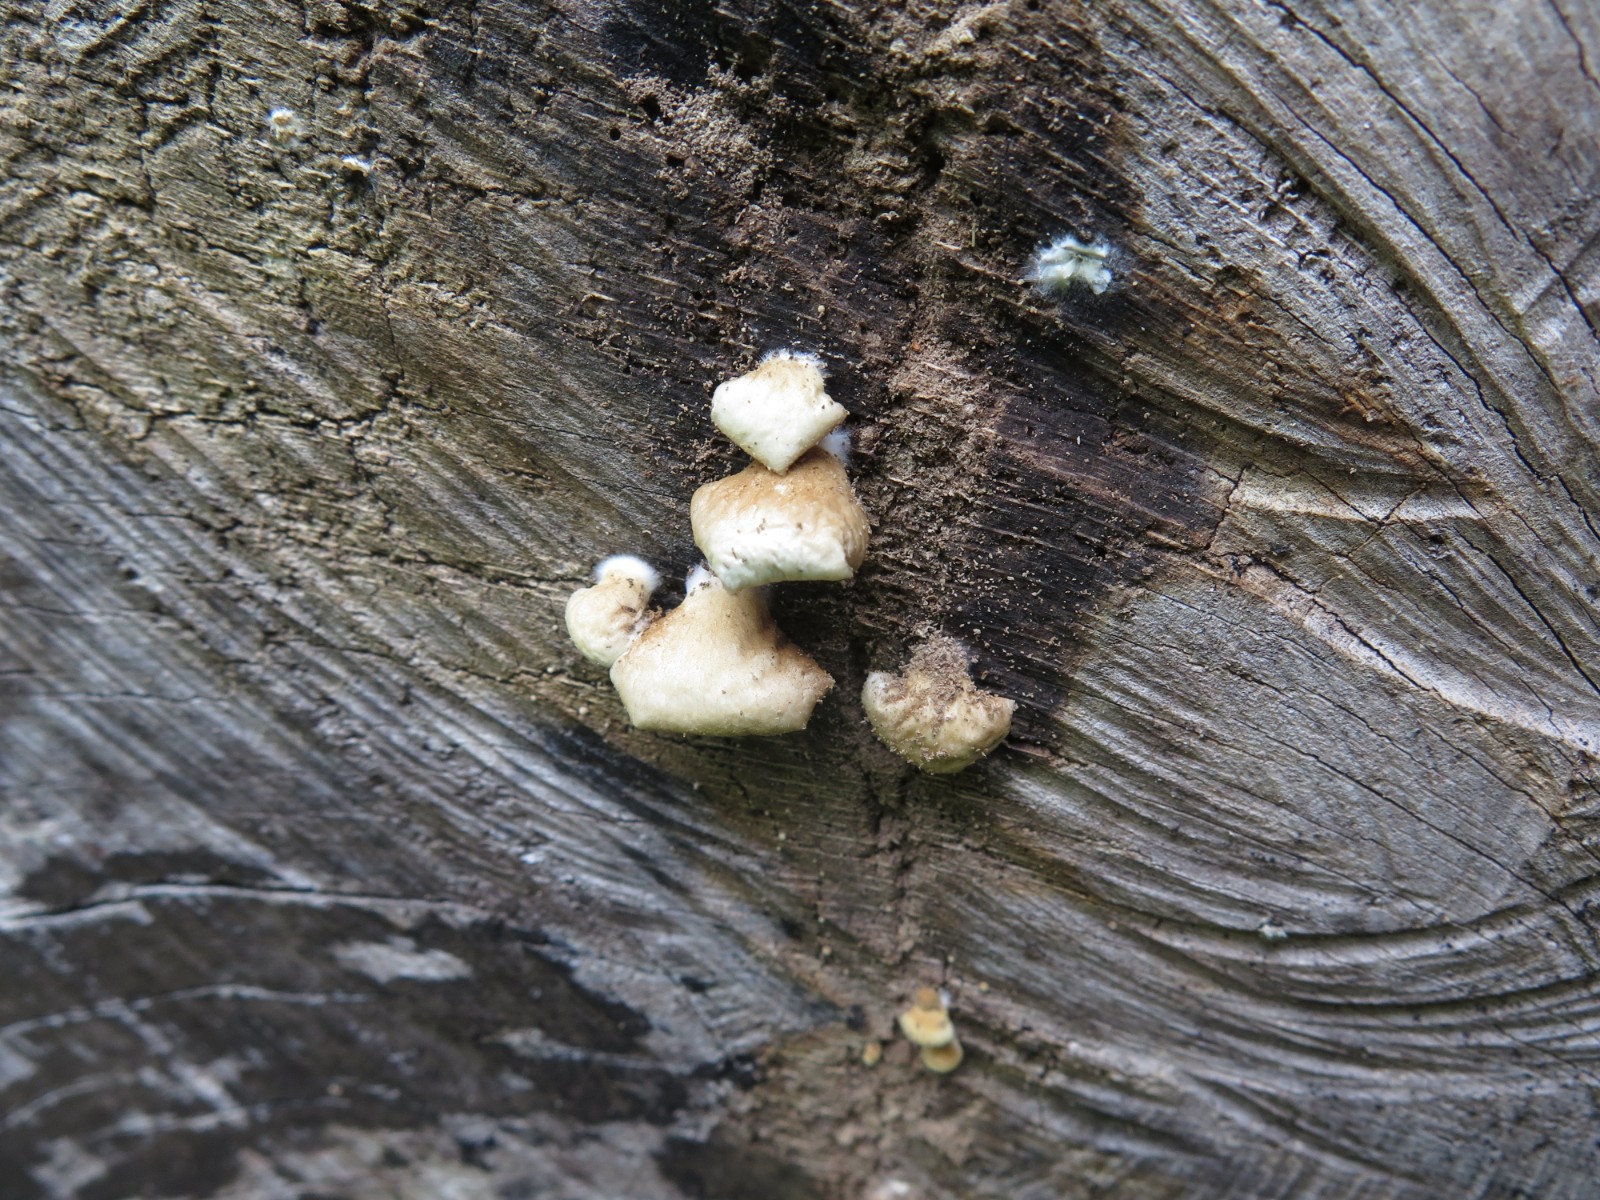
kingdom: Fungi
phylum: Basidiomycota
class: Agaricomycetes
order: Agaricales
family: Crepidotaceae
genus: Crepidotus
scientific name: Crepidotus mollis
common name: blød muslingesvamp
